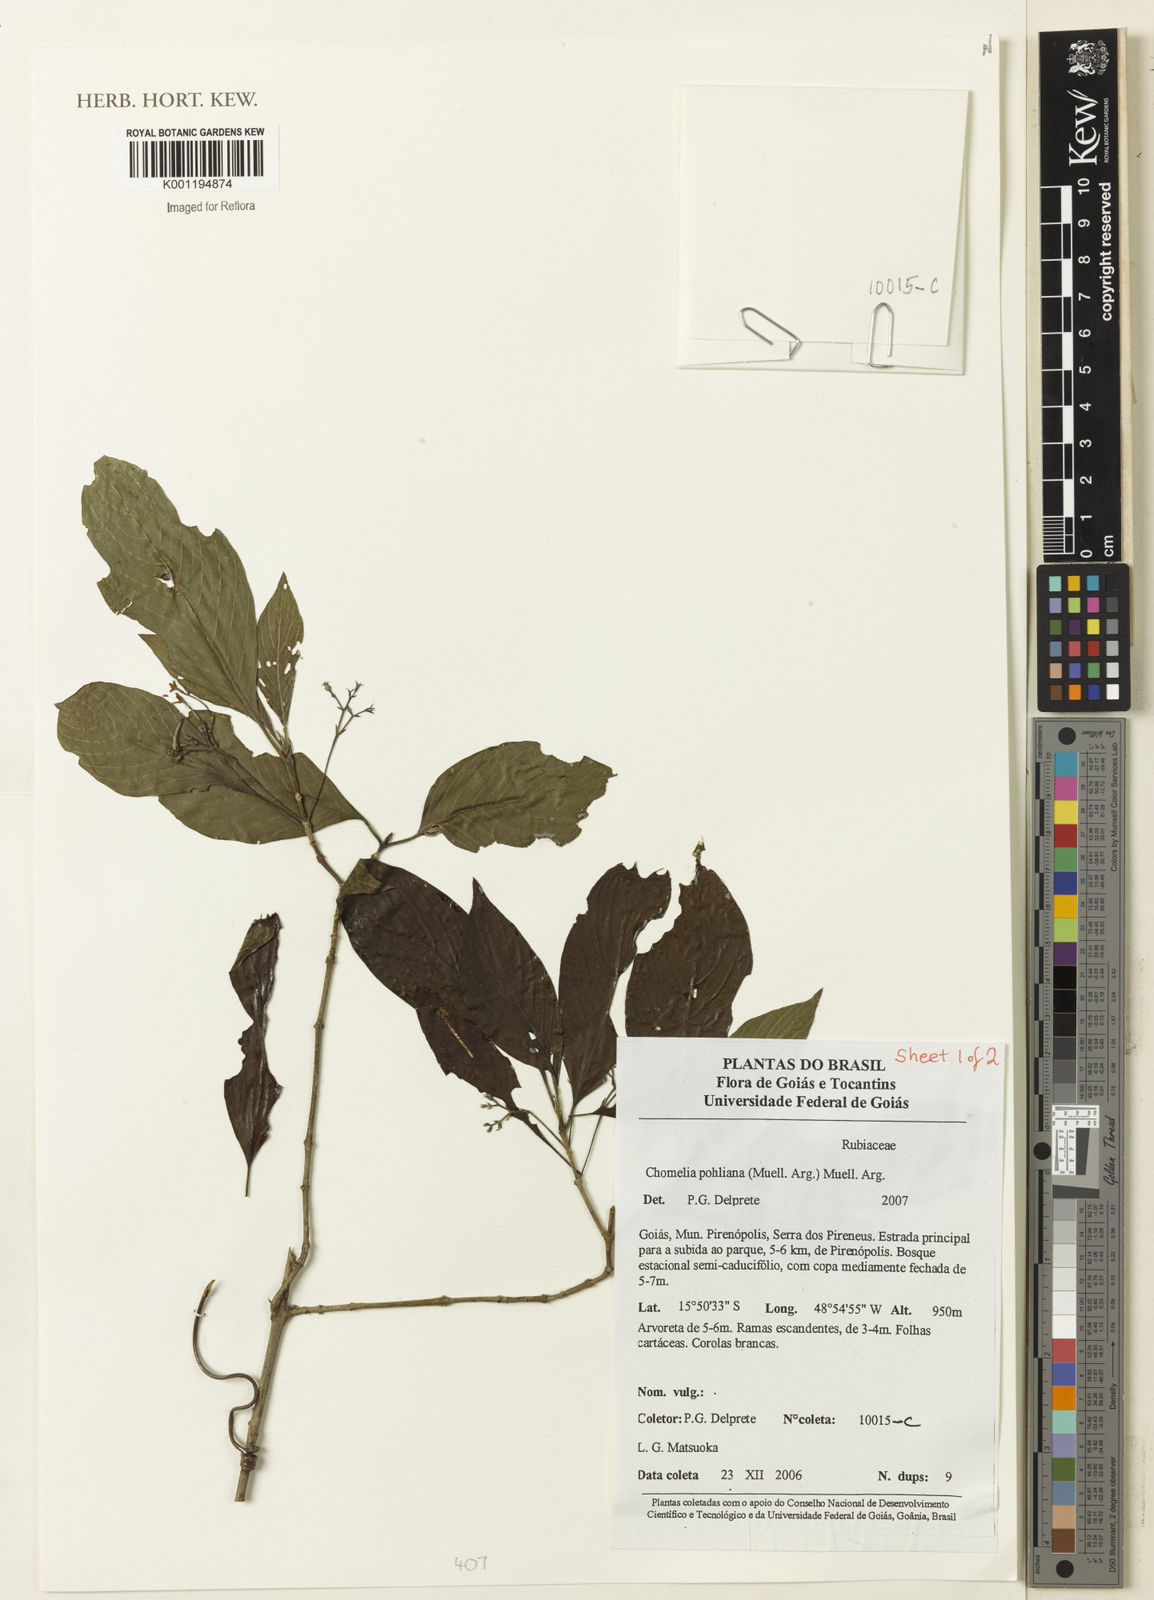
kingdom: Plantae
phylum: Tracheophyta
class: Magnoliopsida
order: Gentianales
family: Rubiaceae
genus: Chomelia
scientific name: Chomelia
